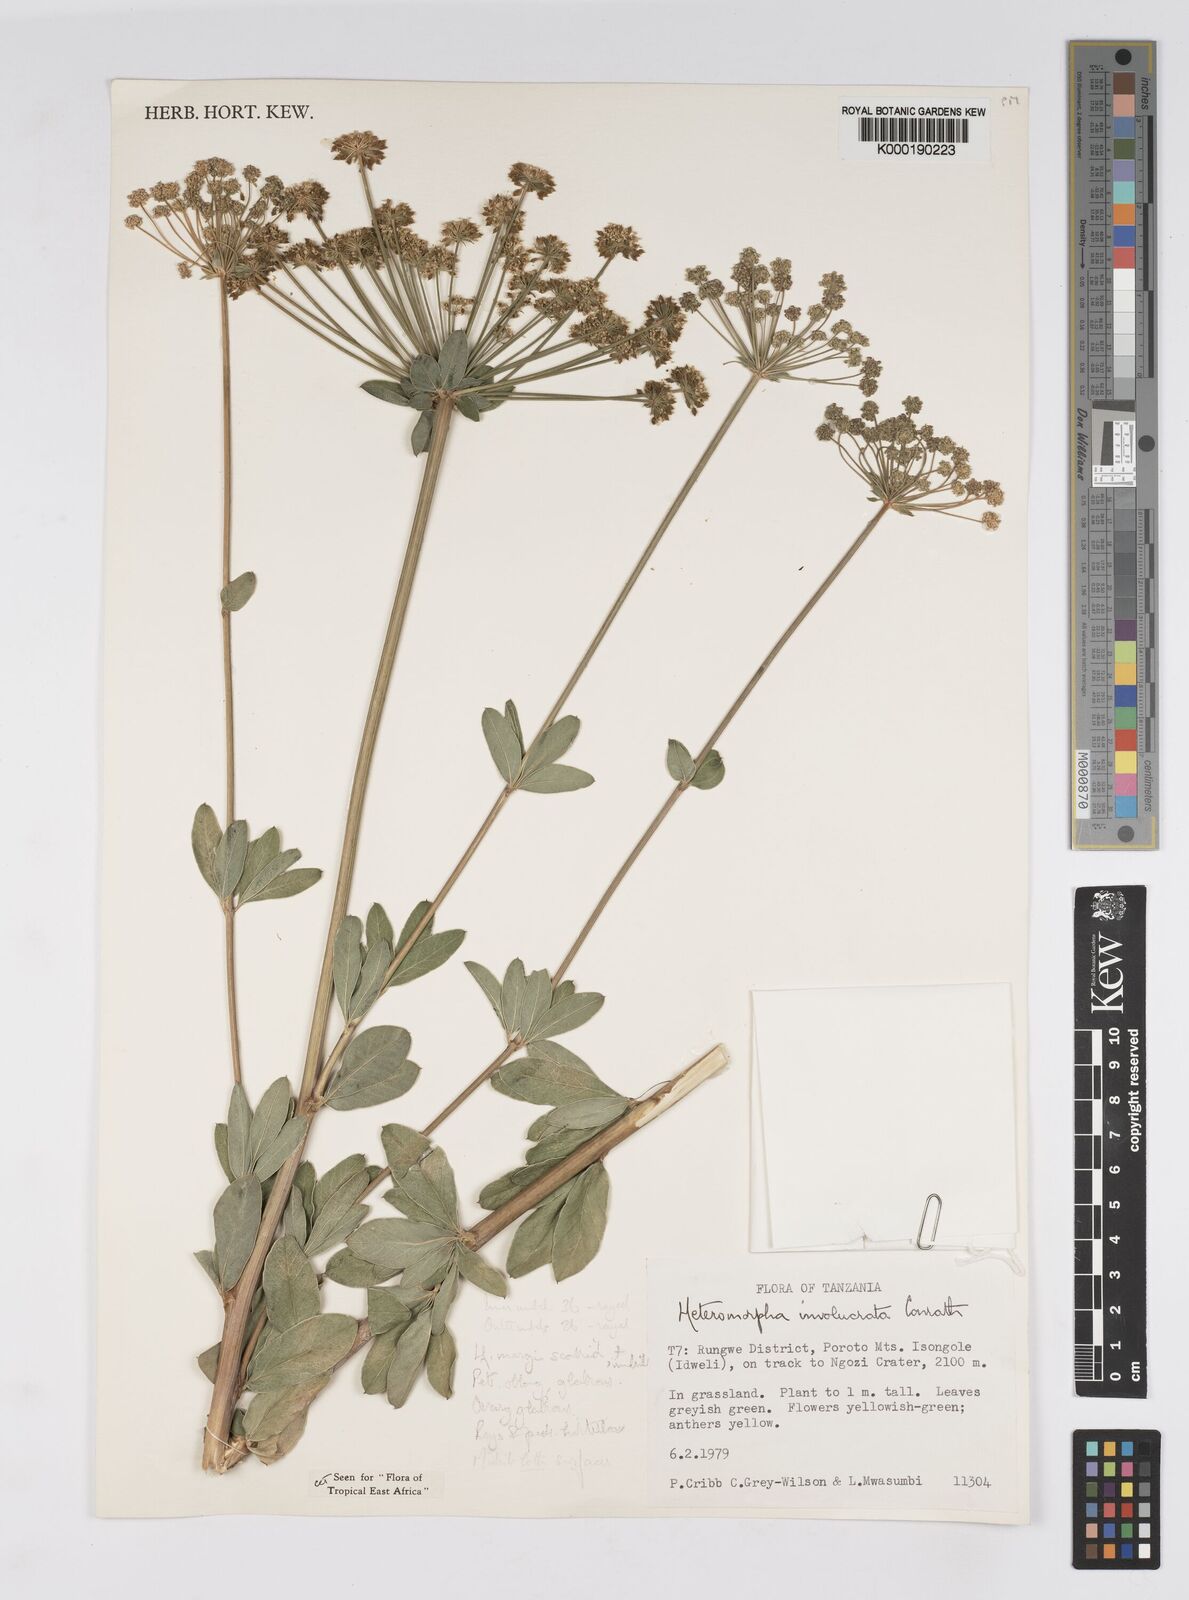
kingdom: Plantae
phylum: Tracheophyta
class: Magnoliopsida
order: Apiales
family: Apiaceae
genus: Heteromorpha
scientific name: Heteromorpha involucrata
